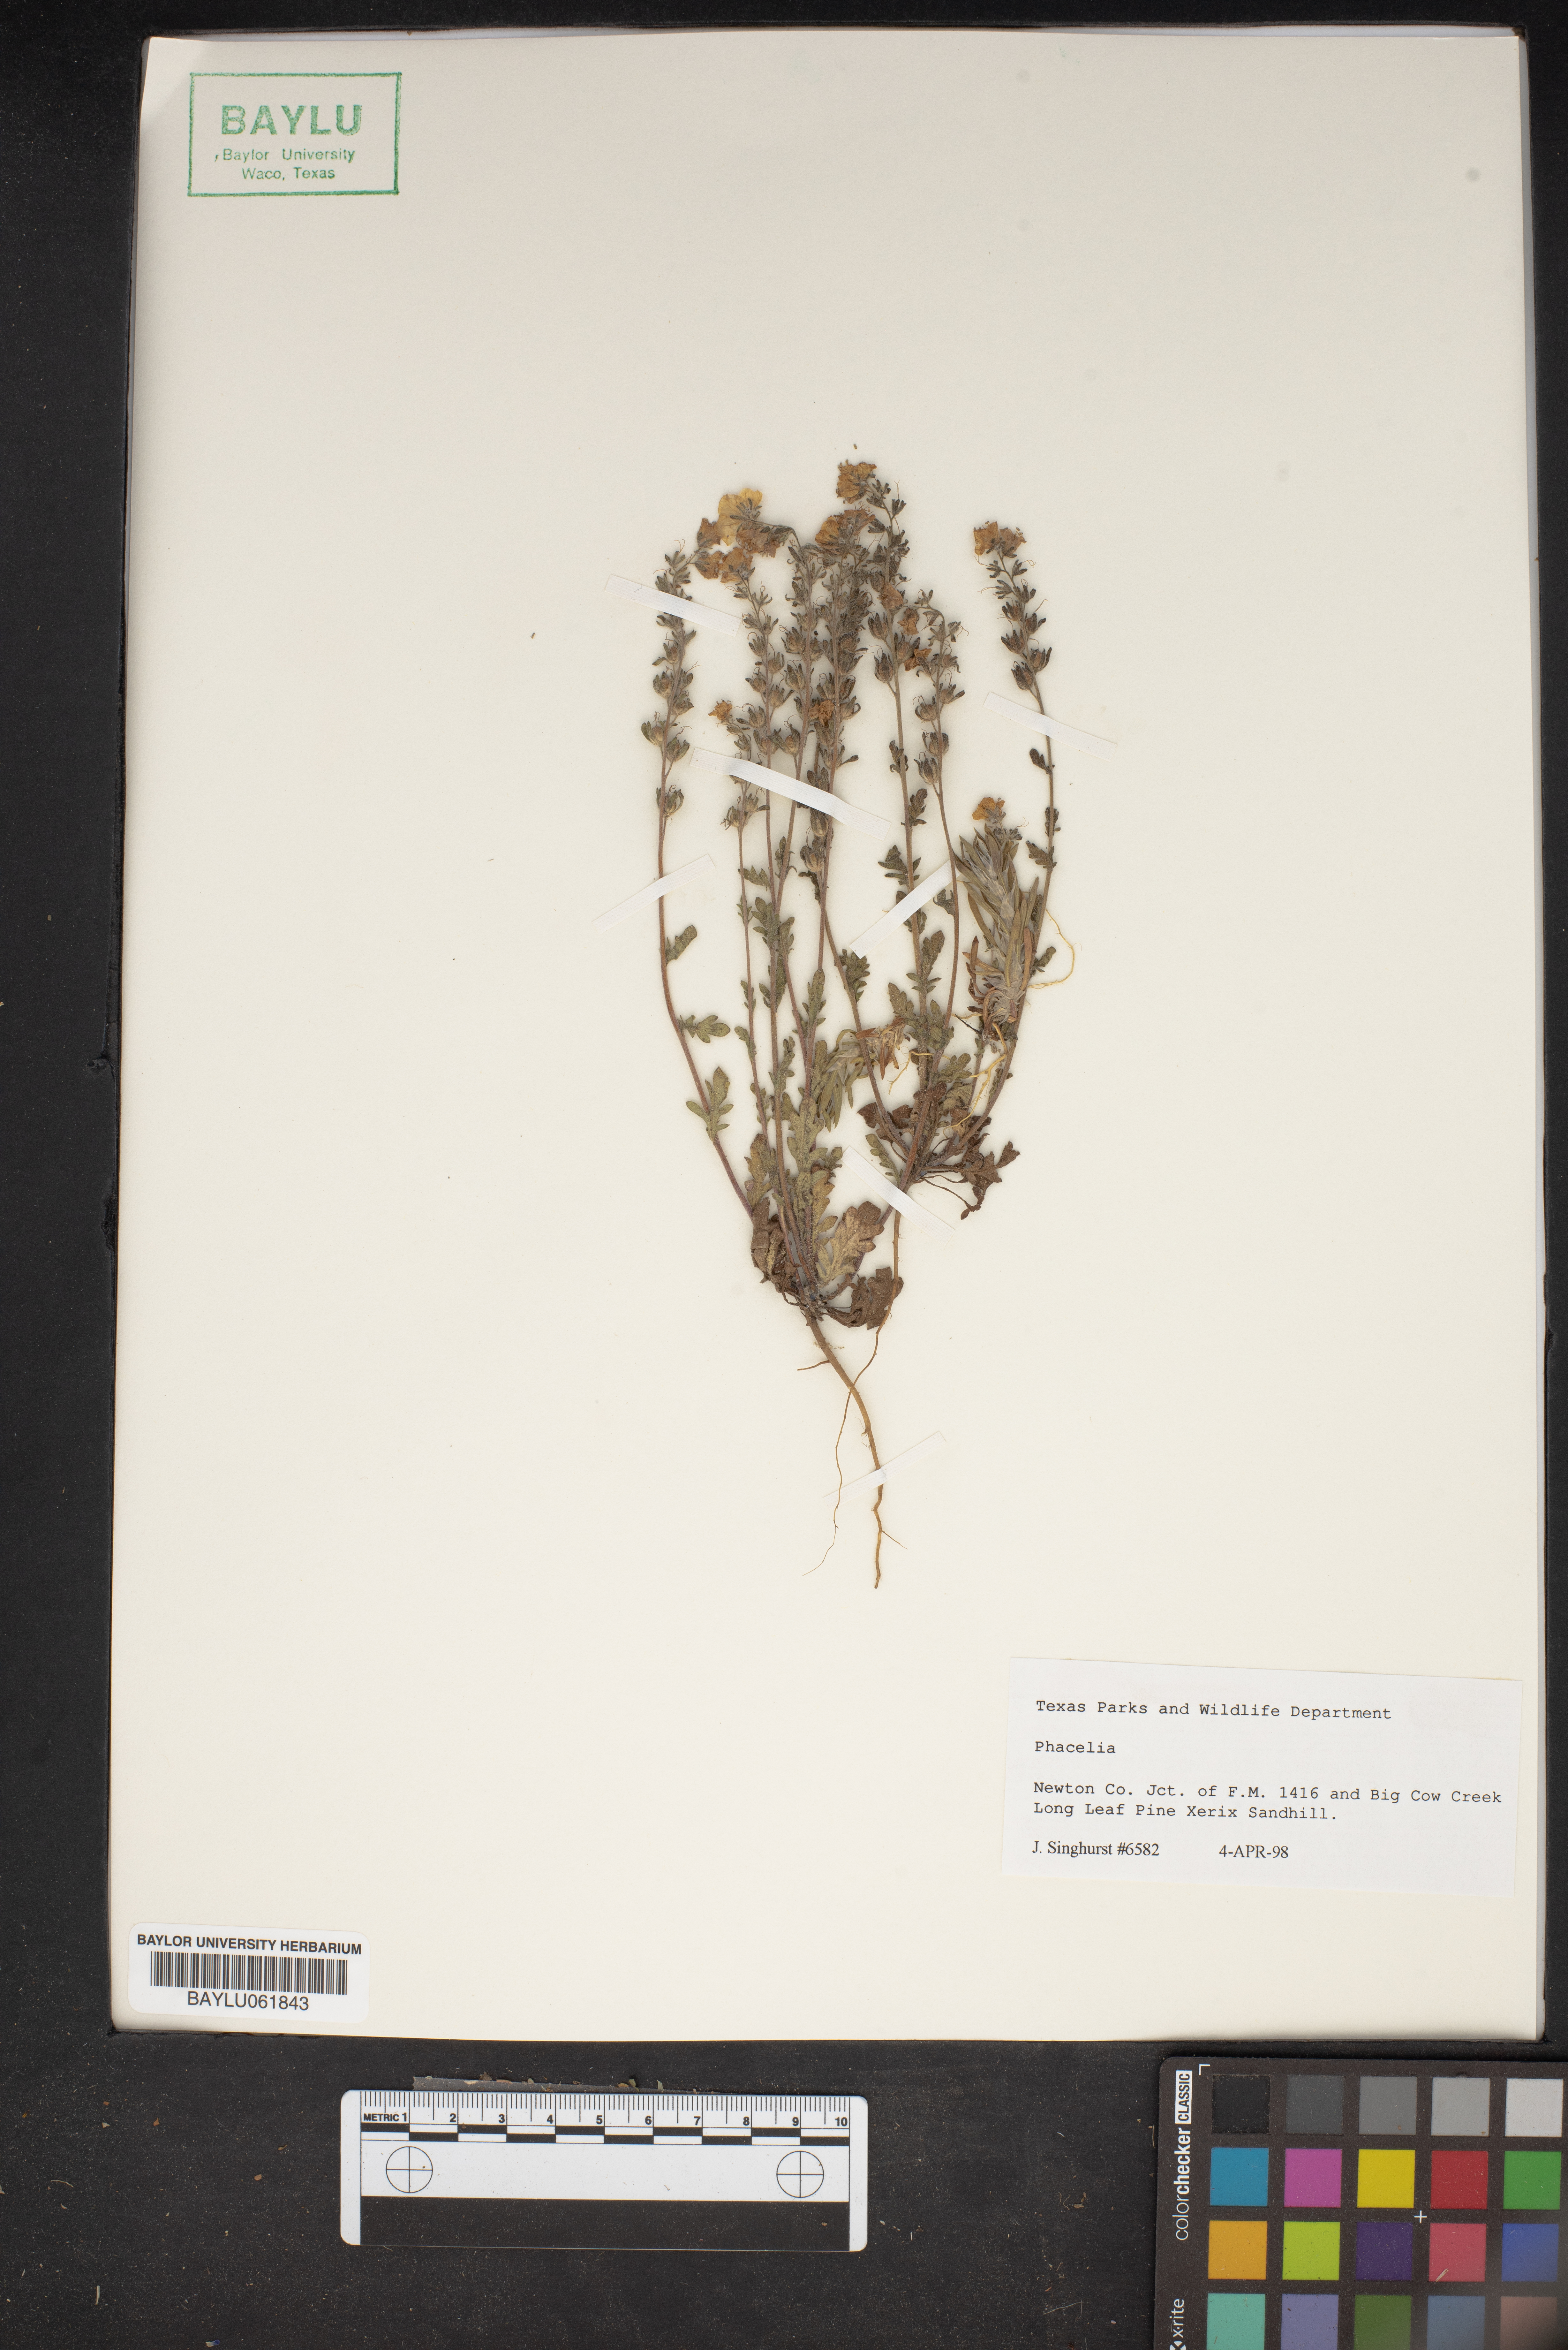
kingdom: Plantae
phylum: Tracheophyta
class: Magnoliopsida
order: Boraginales
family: Hydrophyllaceae
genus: Phacelia
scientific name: Phacelia
